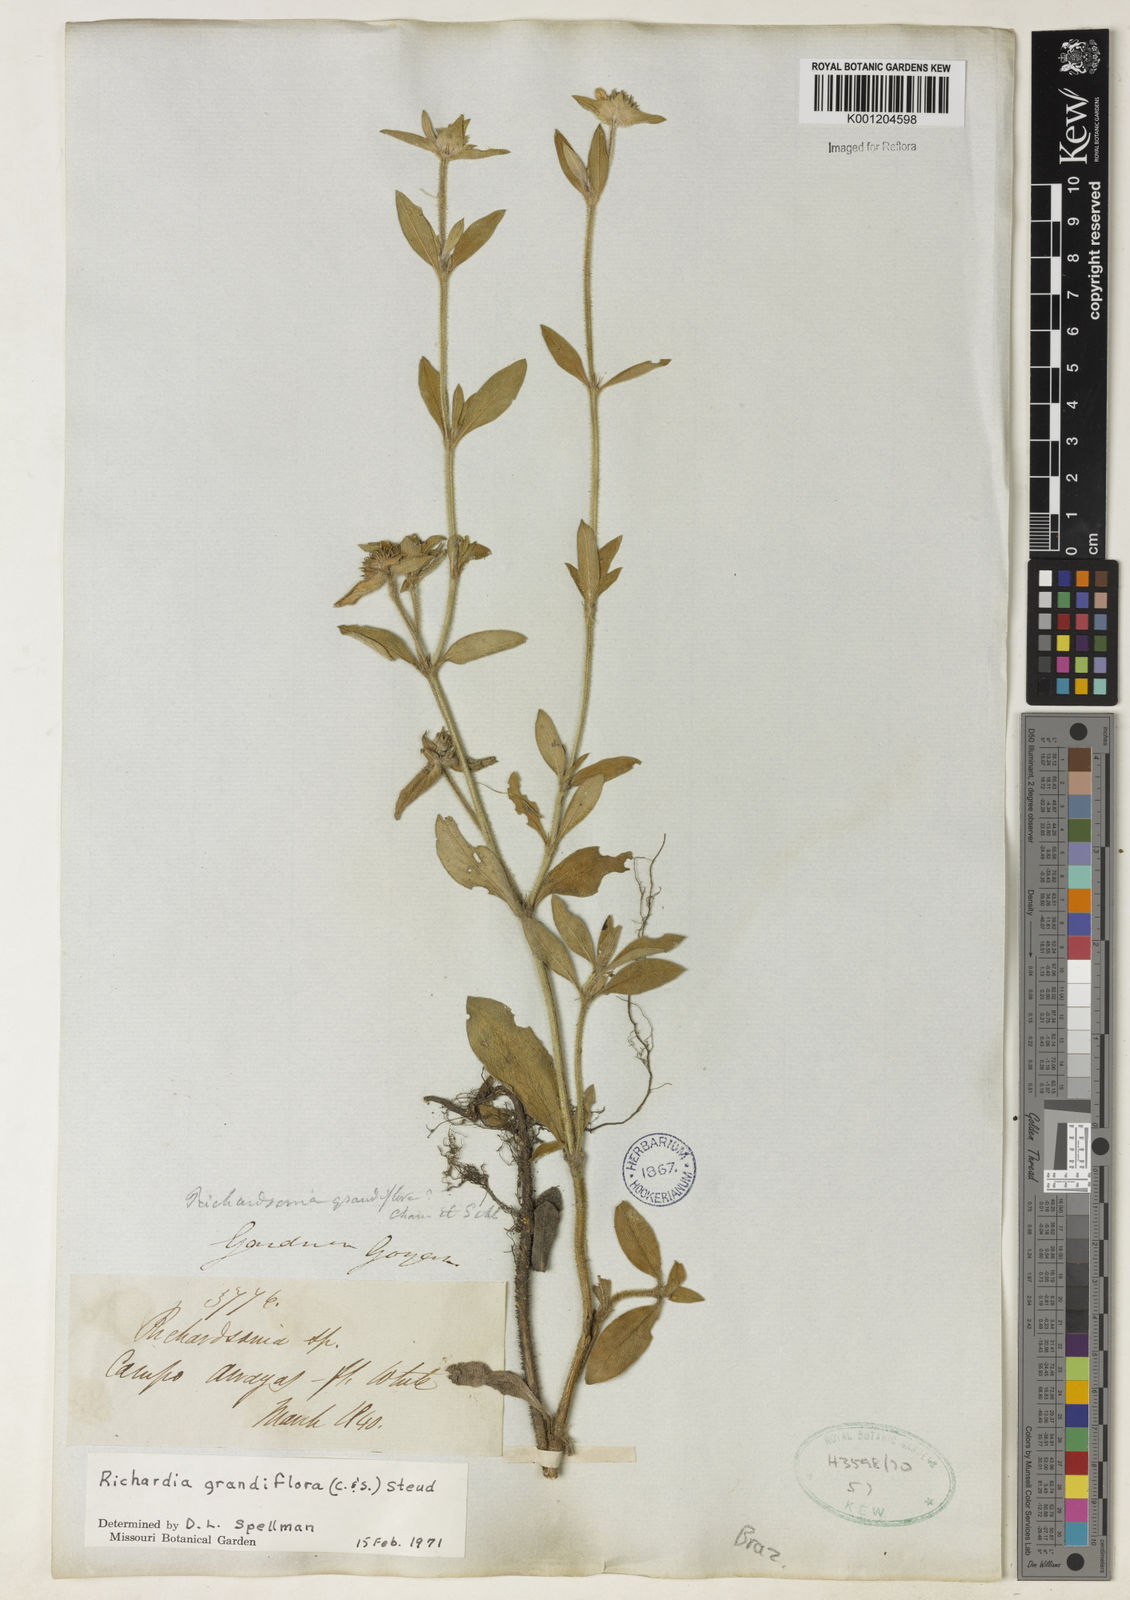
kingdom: Plantae
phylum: Tracheophyta
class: Magnoliopsida
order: Gentianales
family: Rubiaceae
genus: Richardia
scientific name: Richardia grandiflora
